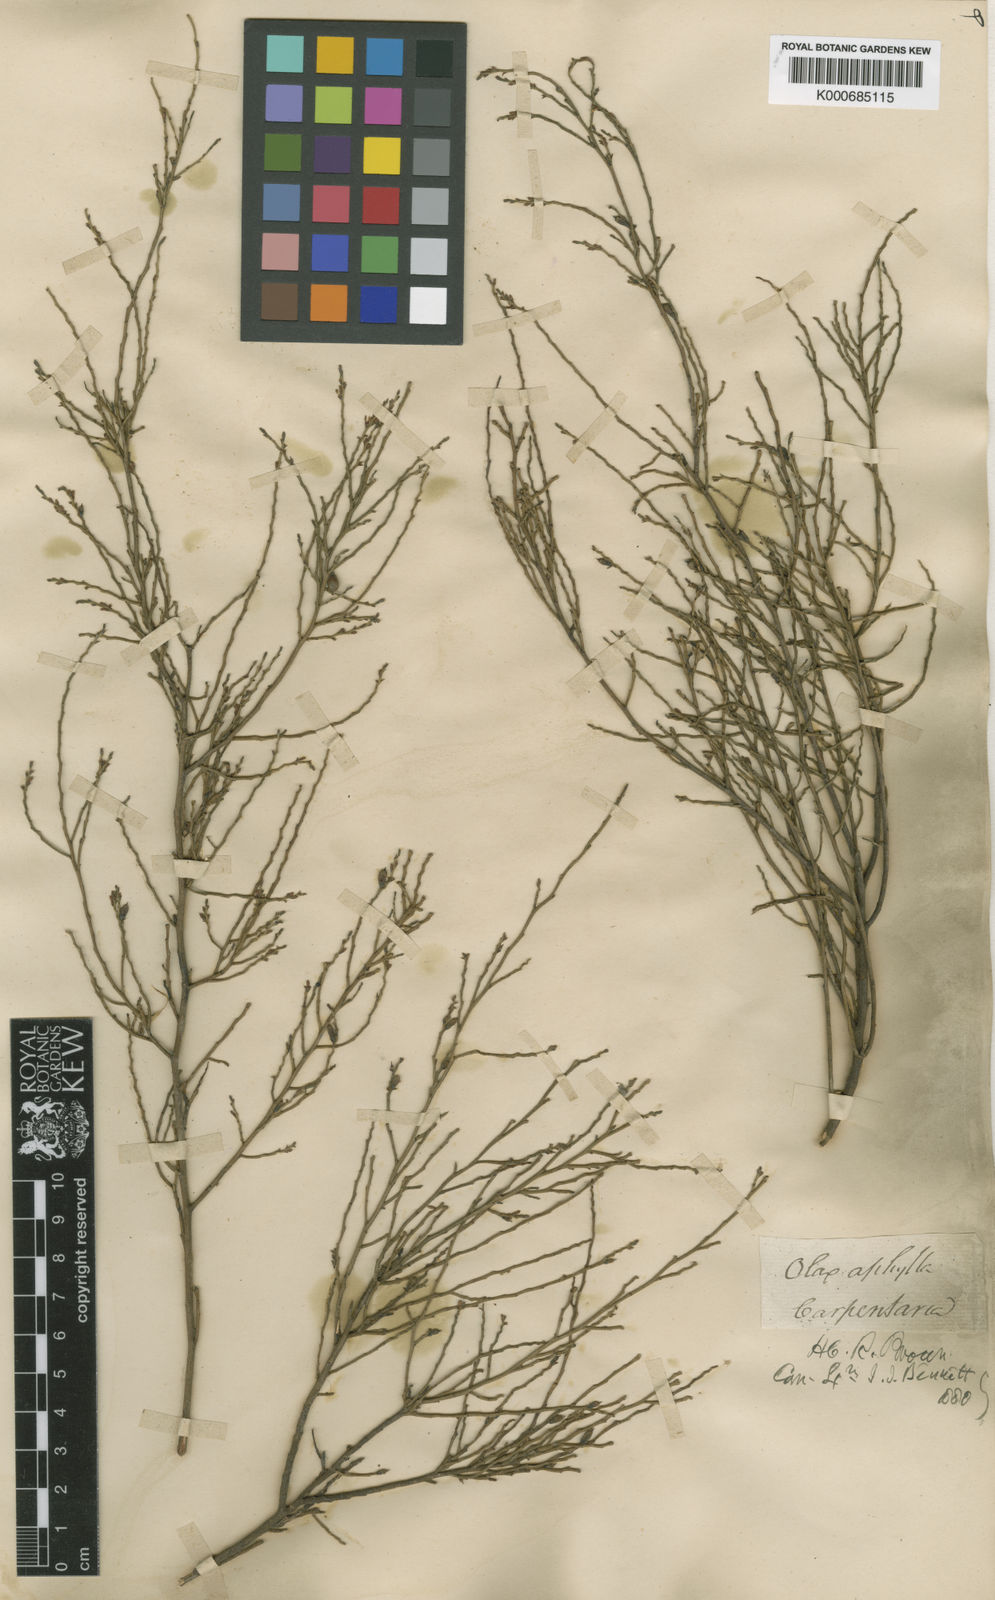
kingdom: Plantae
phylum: Tracheophyta
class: Magnoliopsida
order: Santalales
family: Olacaceae
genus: Olax
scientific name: Olax aphylla
